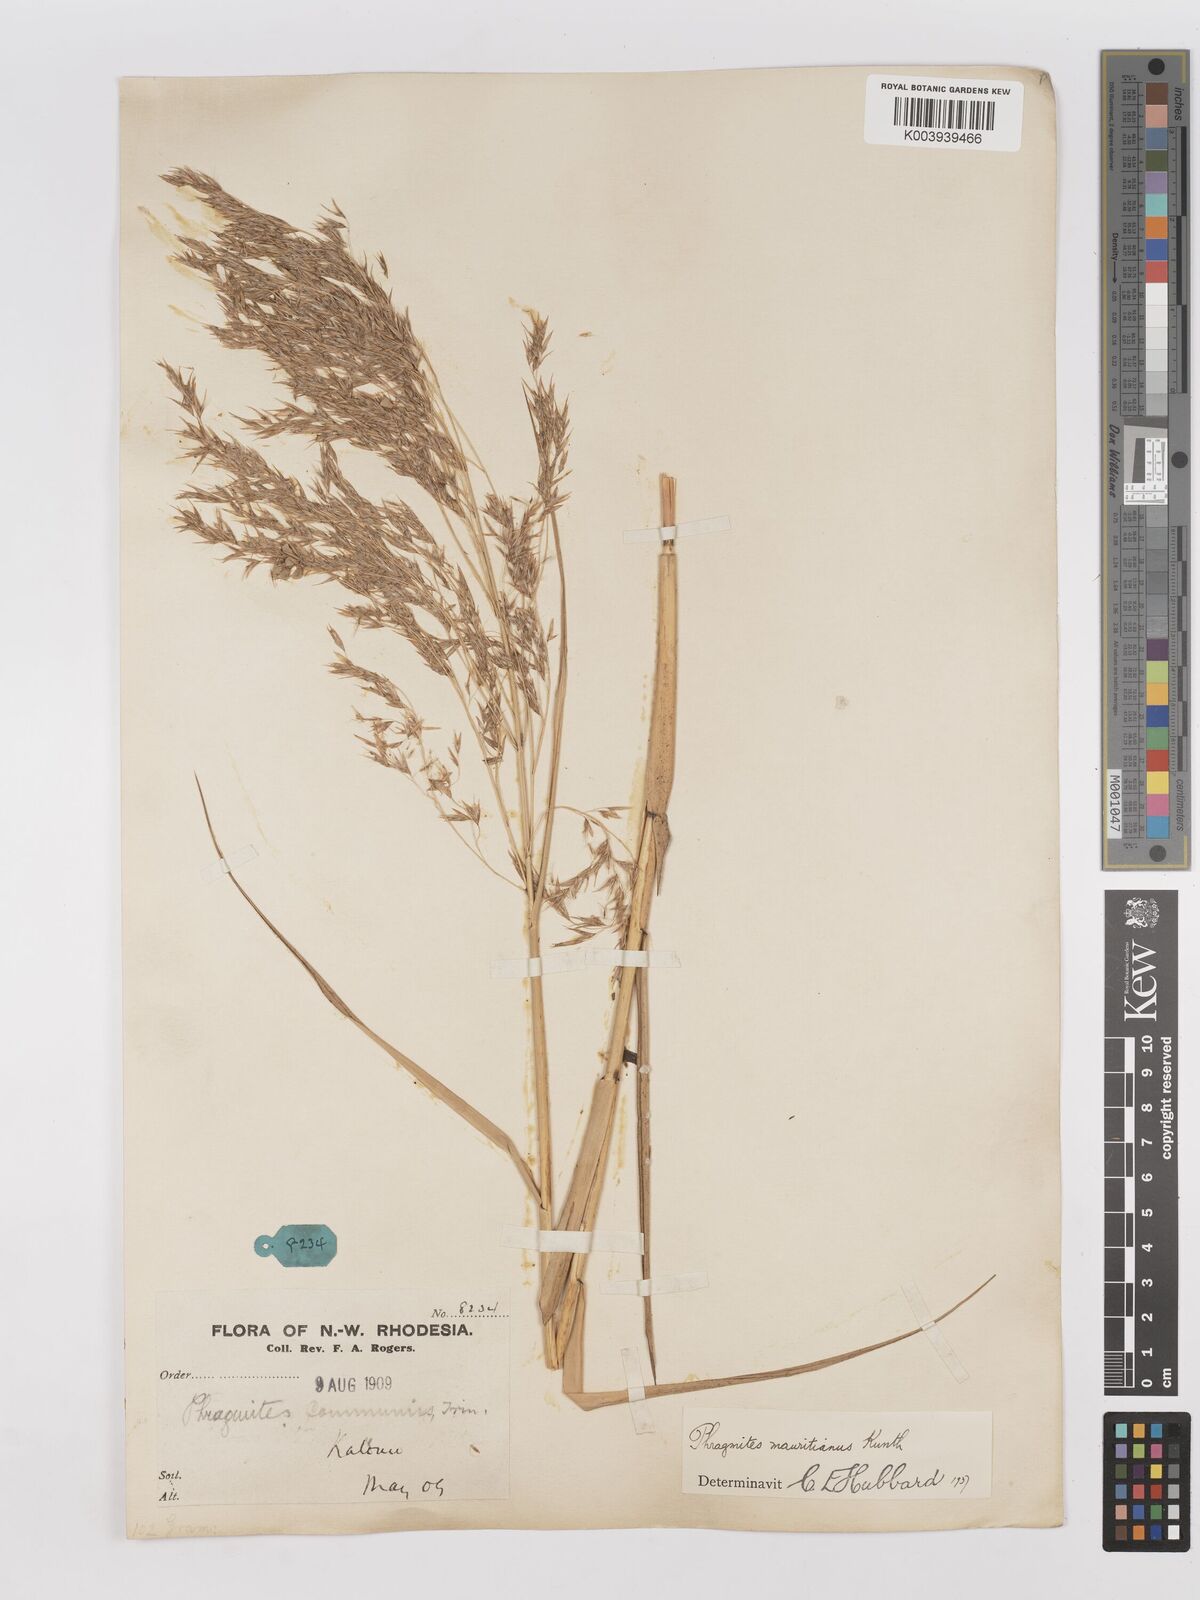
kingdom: Plantae
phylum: Tracheophyta
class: Liliopsida
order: Poales
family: Poaceae
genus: Phragmites
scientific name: Phragmites mauritianus
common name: Reed grass
